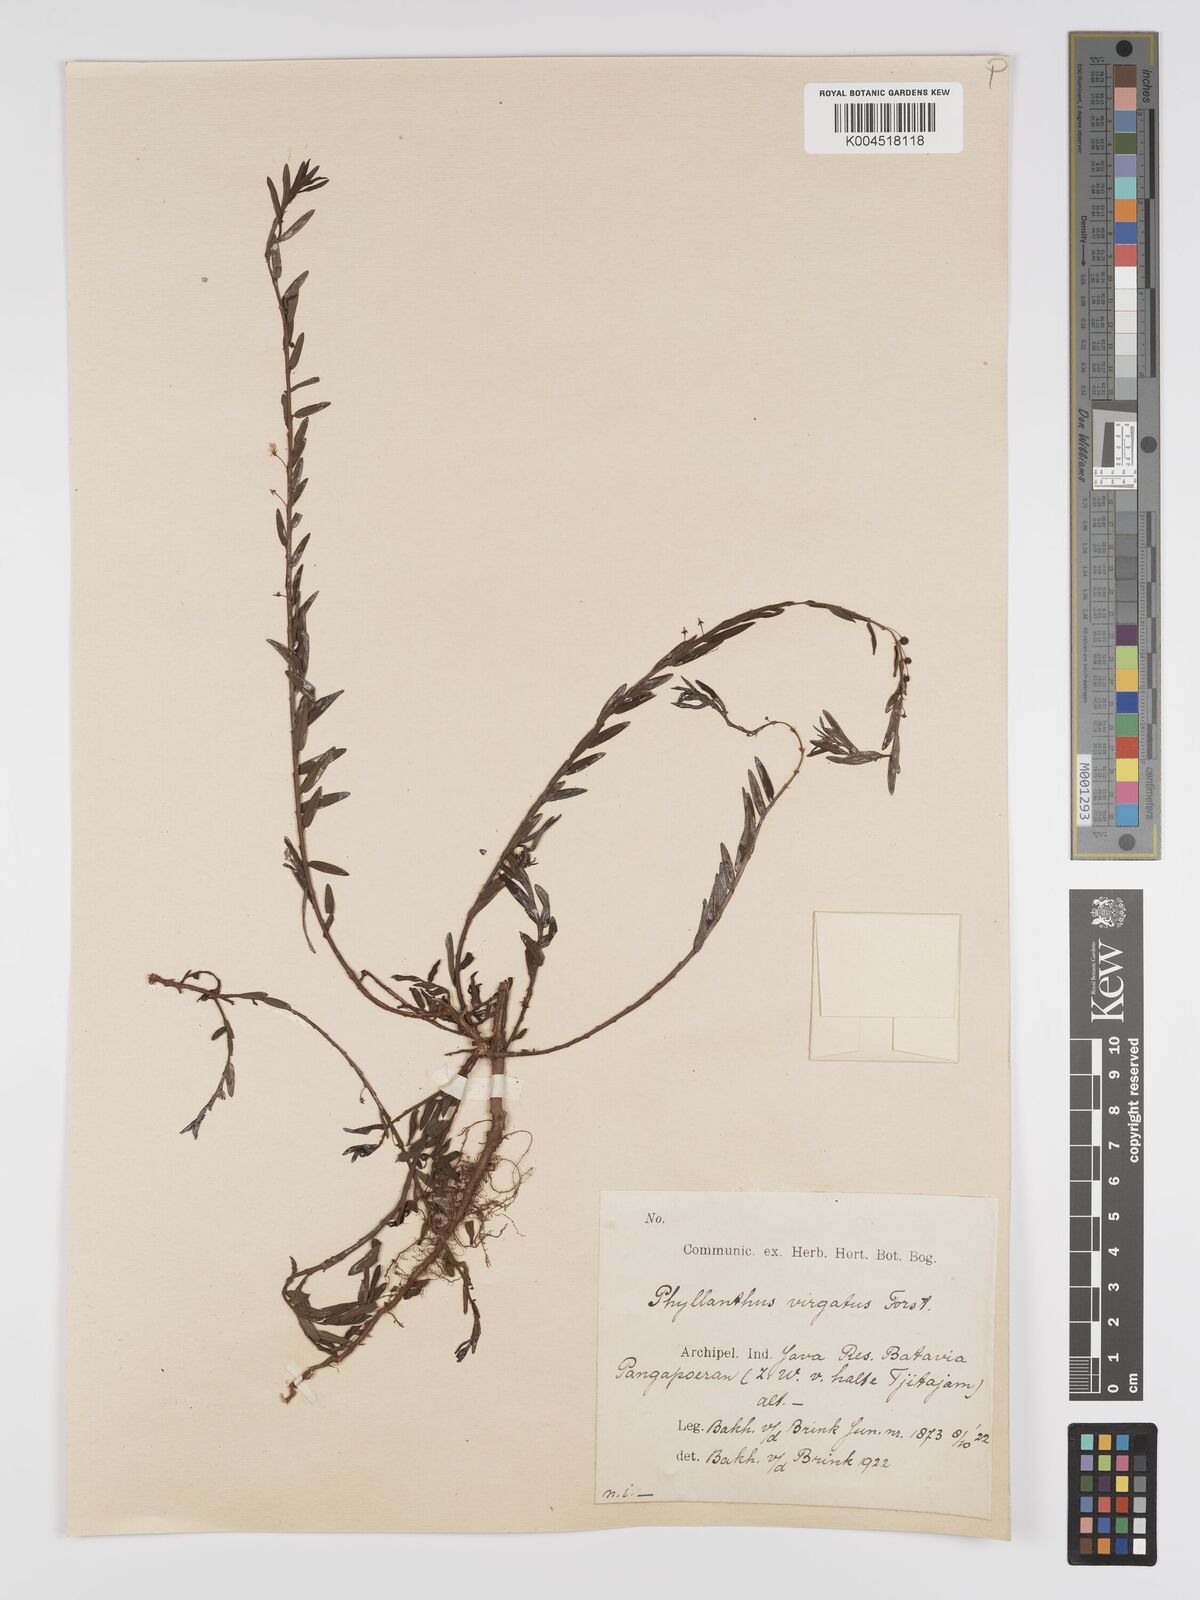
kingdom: Plantae
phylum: Tracheophyta
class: Magnoliopsida
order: Malpighiales
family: Phyllanthaceae
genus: Phyllanthus
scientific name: Phyllanthus virgatus
